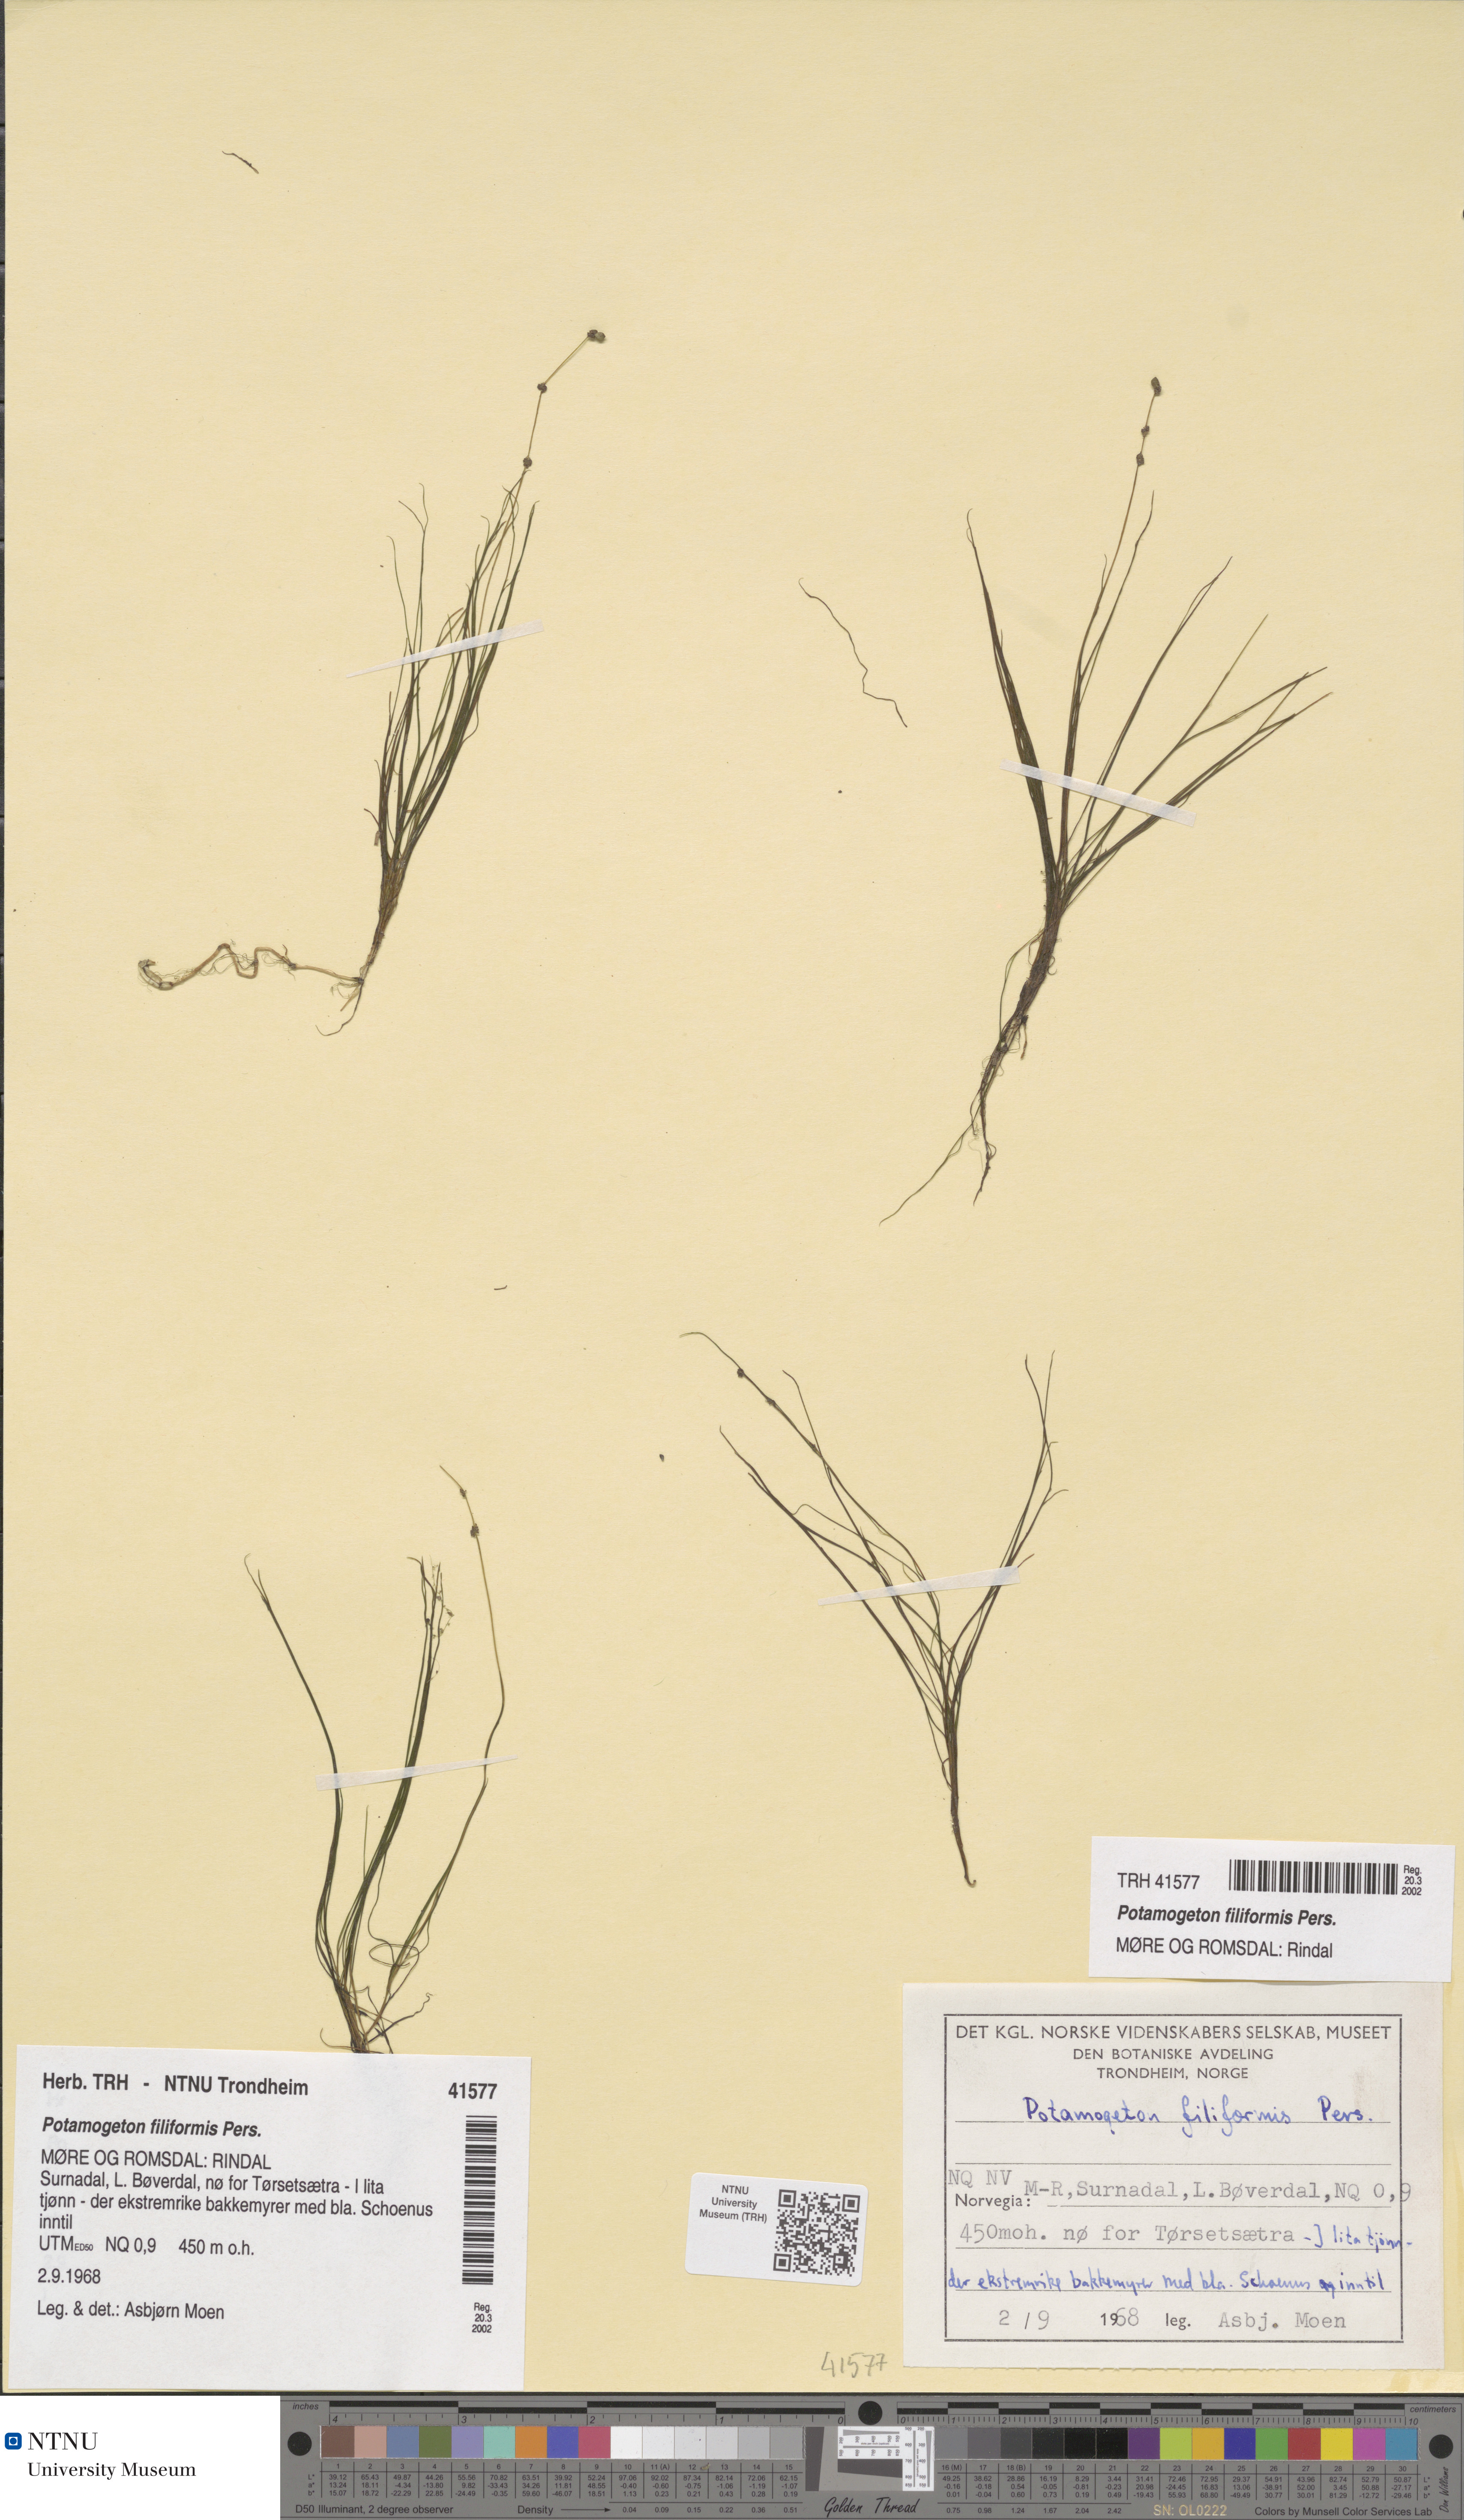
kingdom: Plantae
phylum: Tracheophyta
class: Liliopsida
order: Alismatales
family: Potamogetonaceae
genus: Stuckenia
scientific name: Stuckenia filiformis
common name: Alpine thread-leaved pondweed
